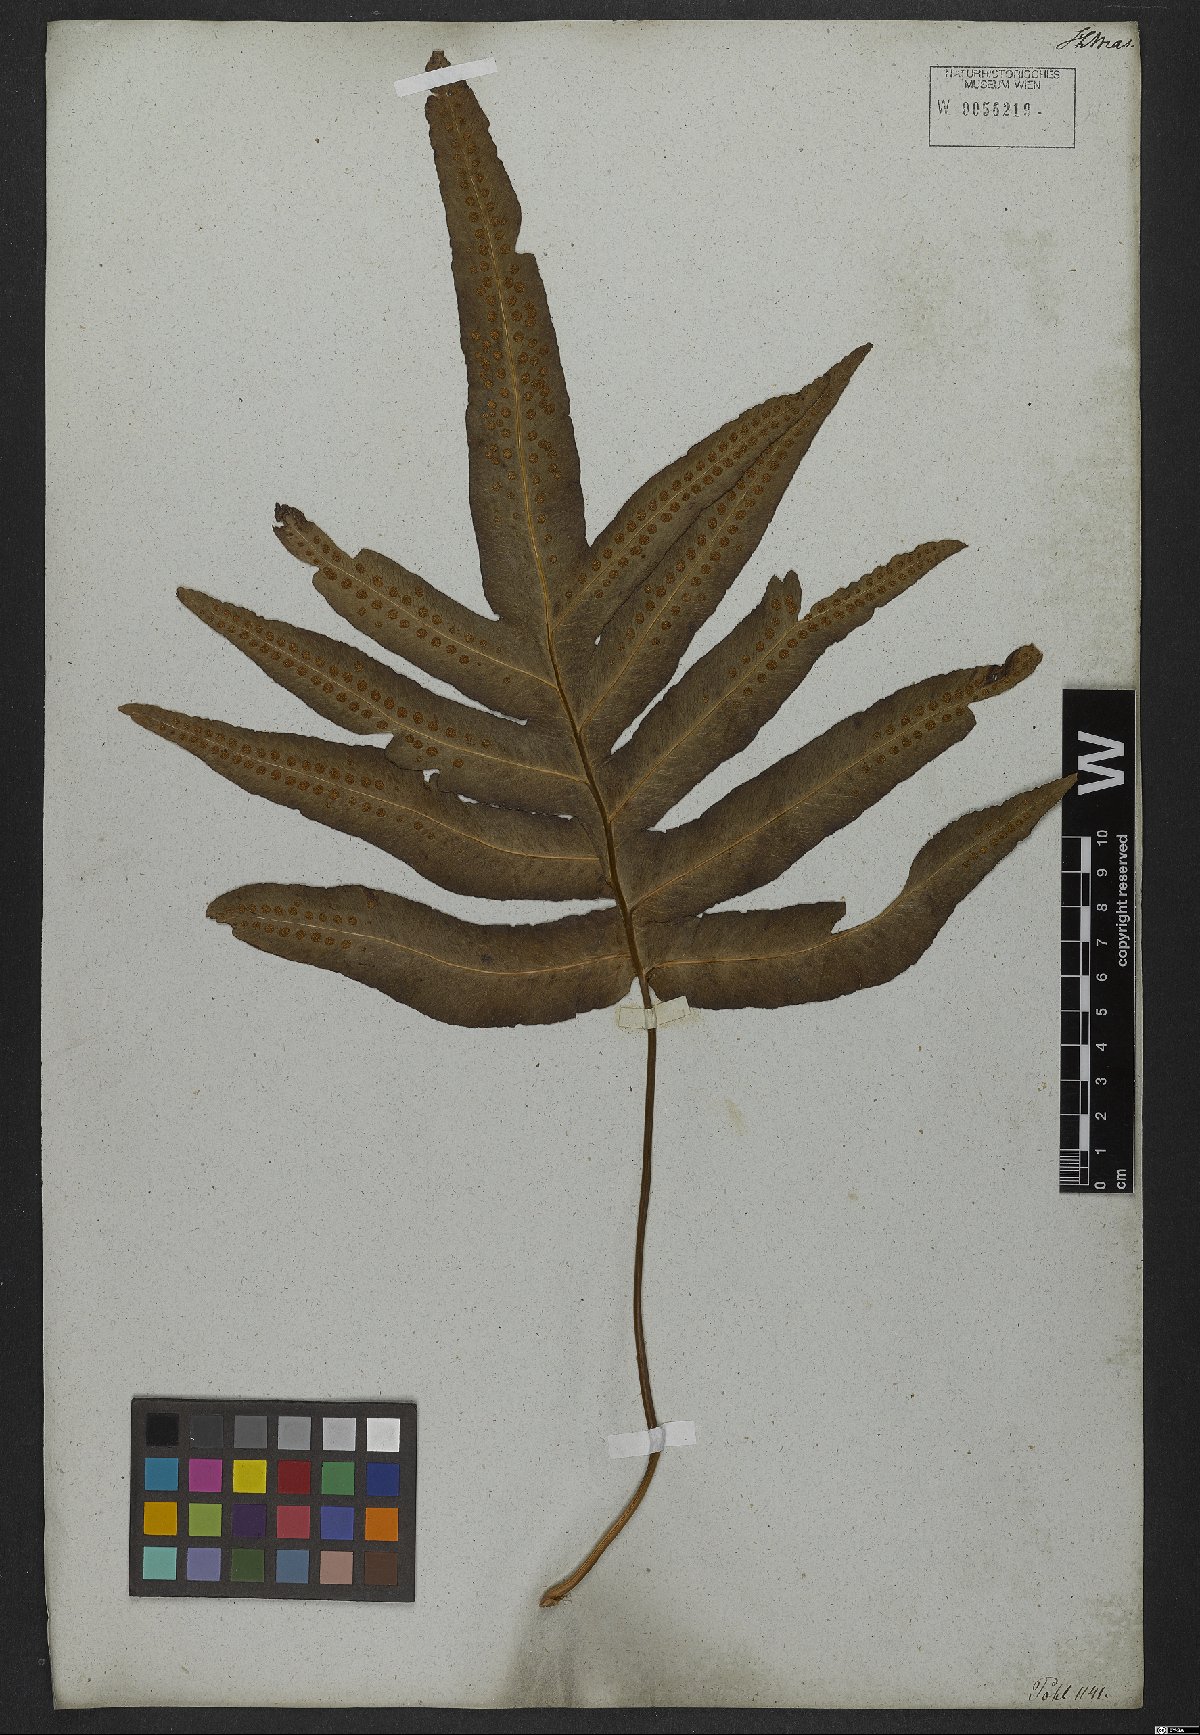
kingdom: Plantae
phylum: Tracheophyta
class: Polypodiopsida
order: Polypodiales
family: Polypodiaceae
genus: Phlebodium
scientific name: Phlebodium decumanum
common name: Golden polypod
